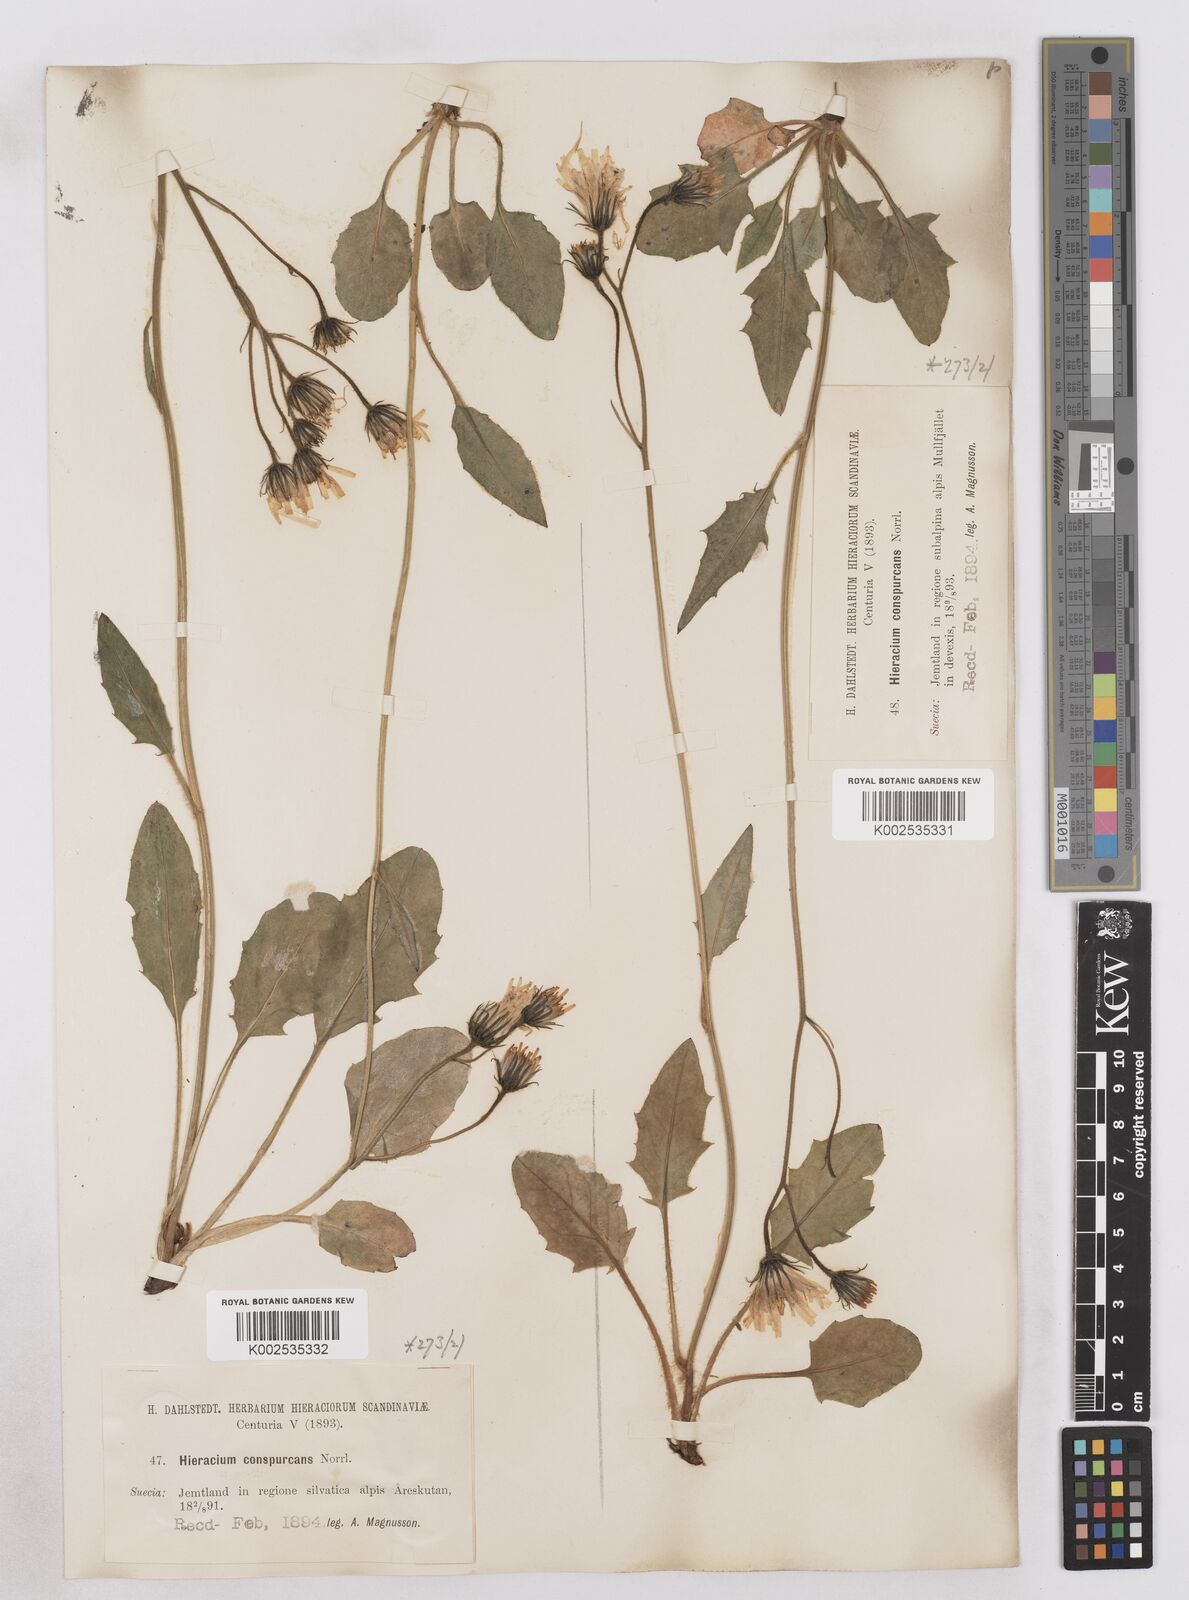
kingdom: Plantae
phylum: Tracheophyta
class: Magnoliopsida
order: Asterales
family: Asteraceae
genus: Hieracium
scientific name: Hieracium conspurcans
